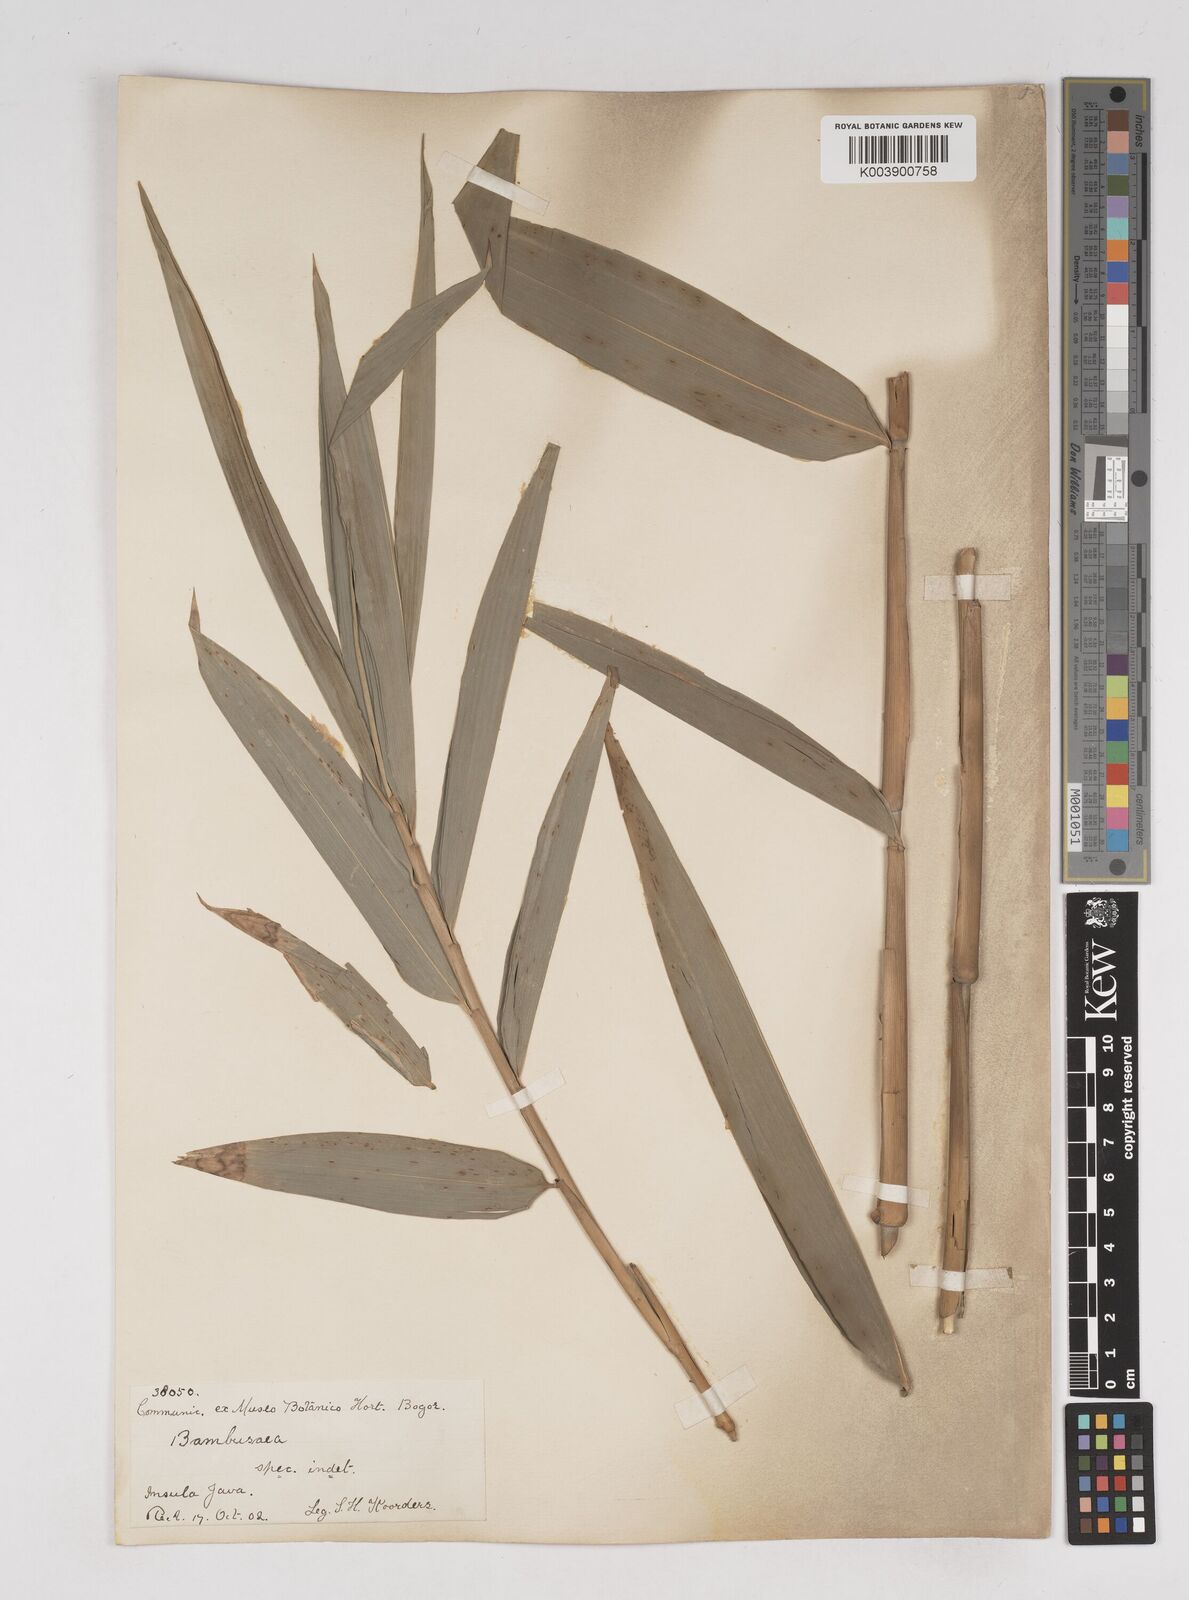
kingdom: Plantae
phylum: Tracheophyta
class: Liliopsida
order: Poales
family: Poaceae
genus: Gigantochloa
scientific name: Gigantochloa
